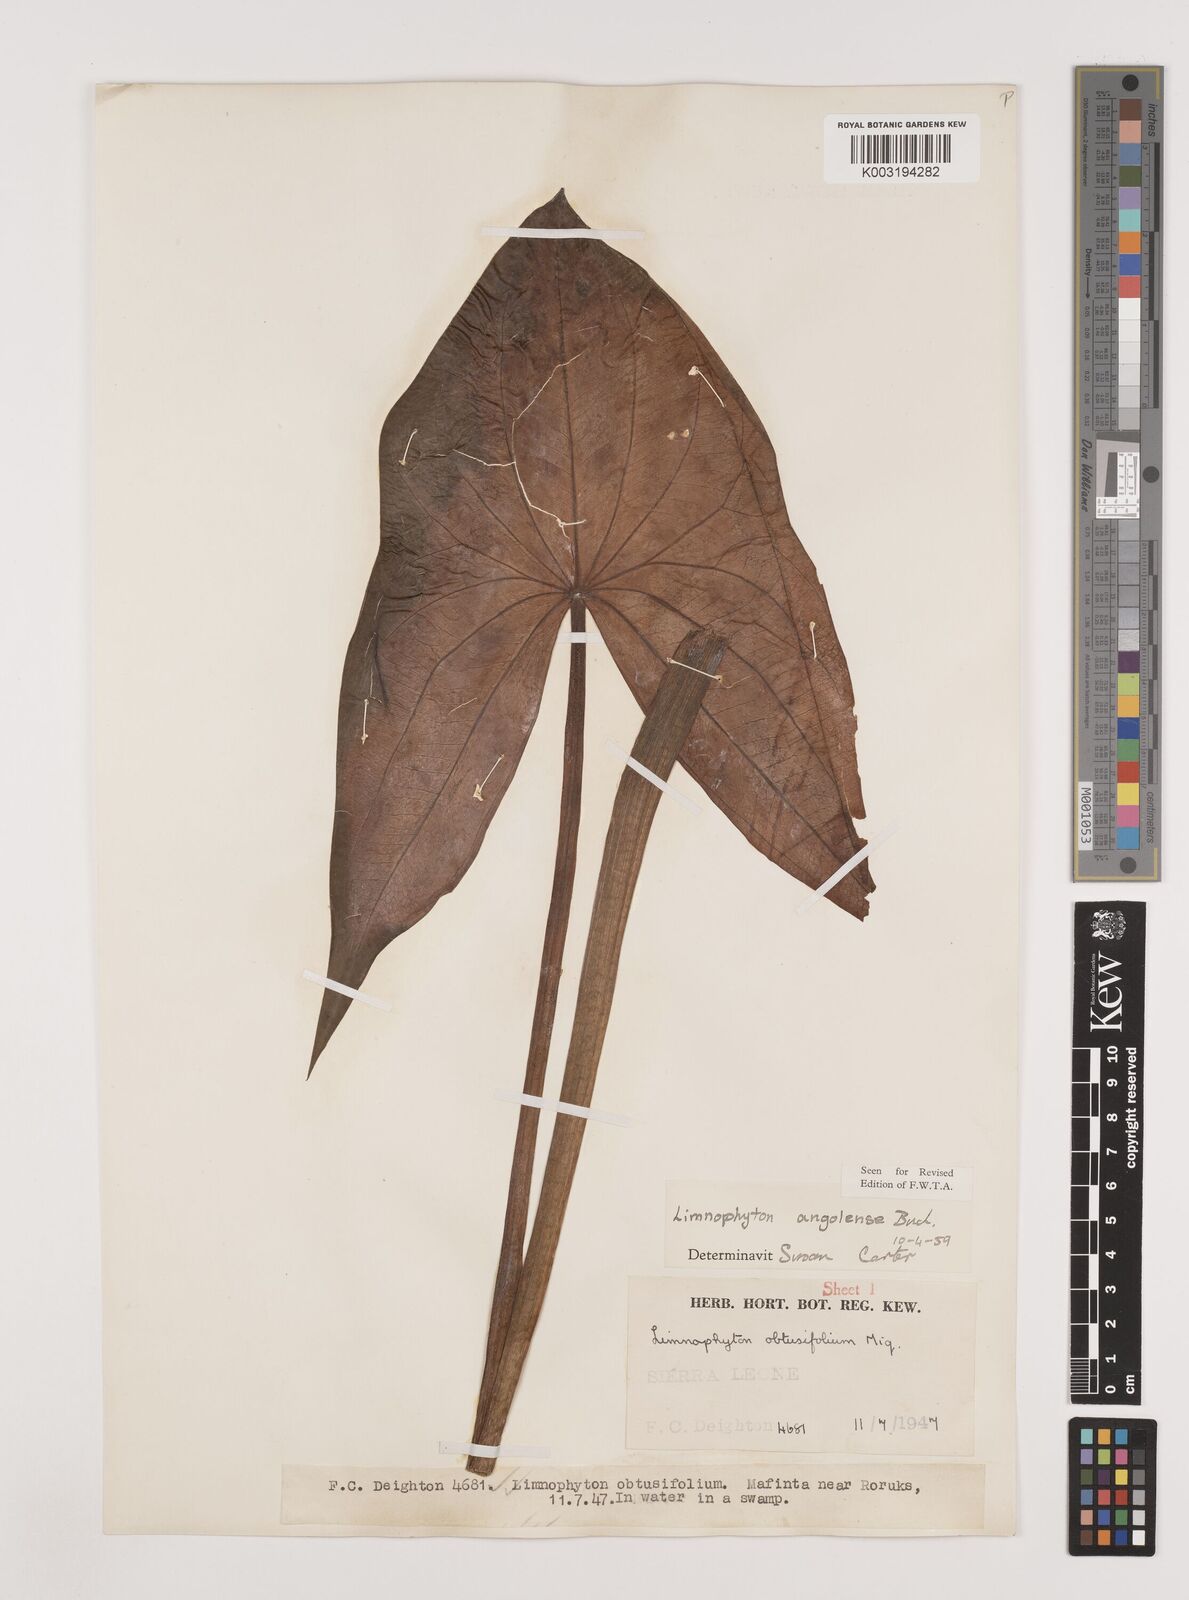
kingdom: Plantae
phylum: Tracheophyta
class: Liliopsida
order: Alismatales
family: Alismataceae
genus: Limnophyton
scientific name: Limnophyton angolense
